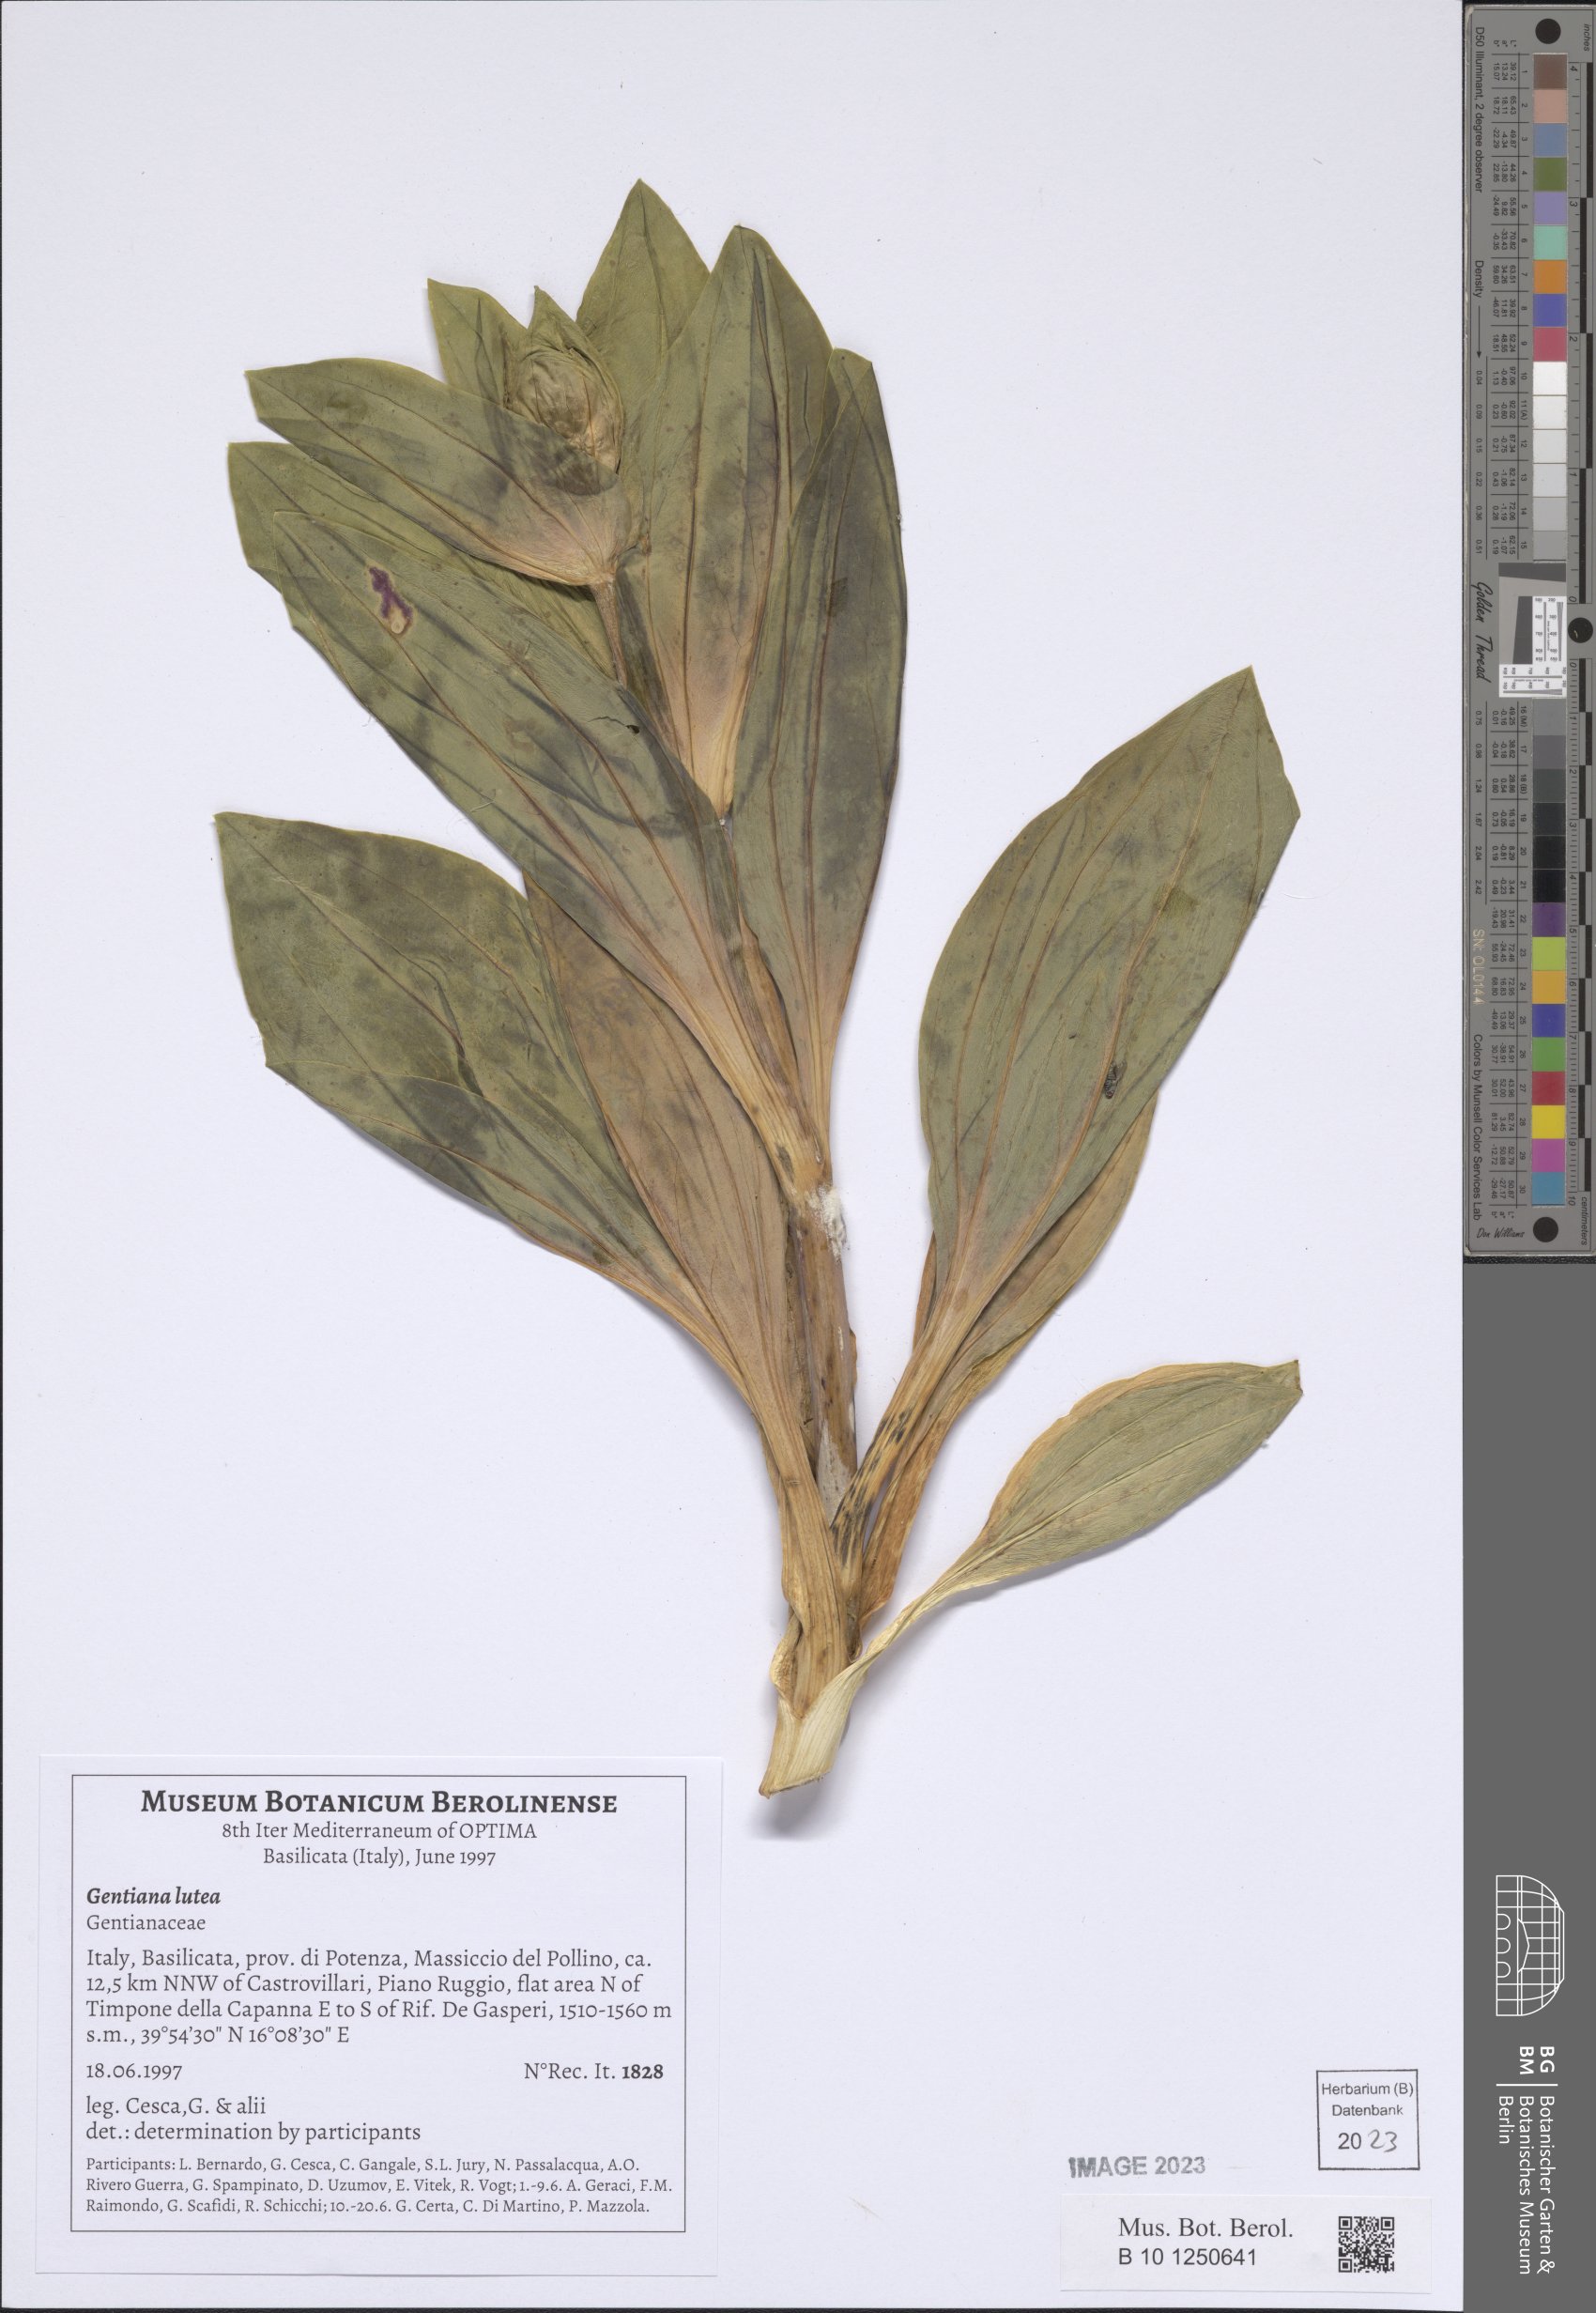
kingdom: Plantae
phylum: Tracheophyta
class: Magnoliopsida
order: Gentianales
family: Gentianaceae
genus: Gentiana
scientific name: Gentiana lutea
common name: Great yellow gentian
